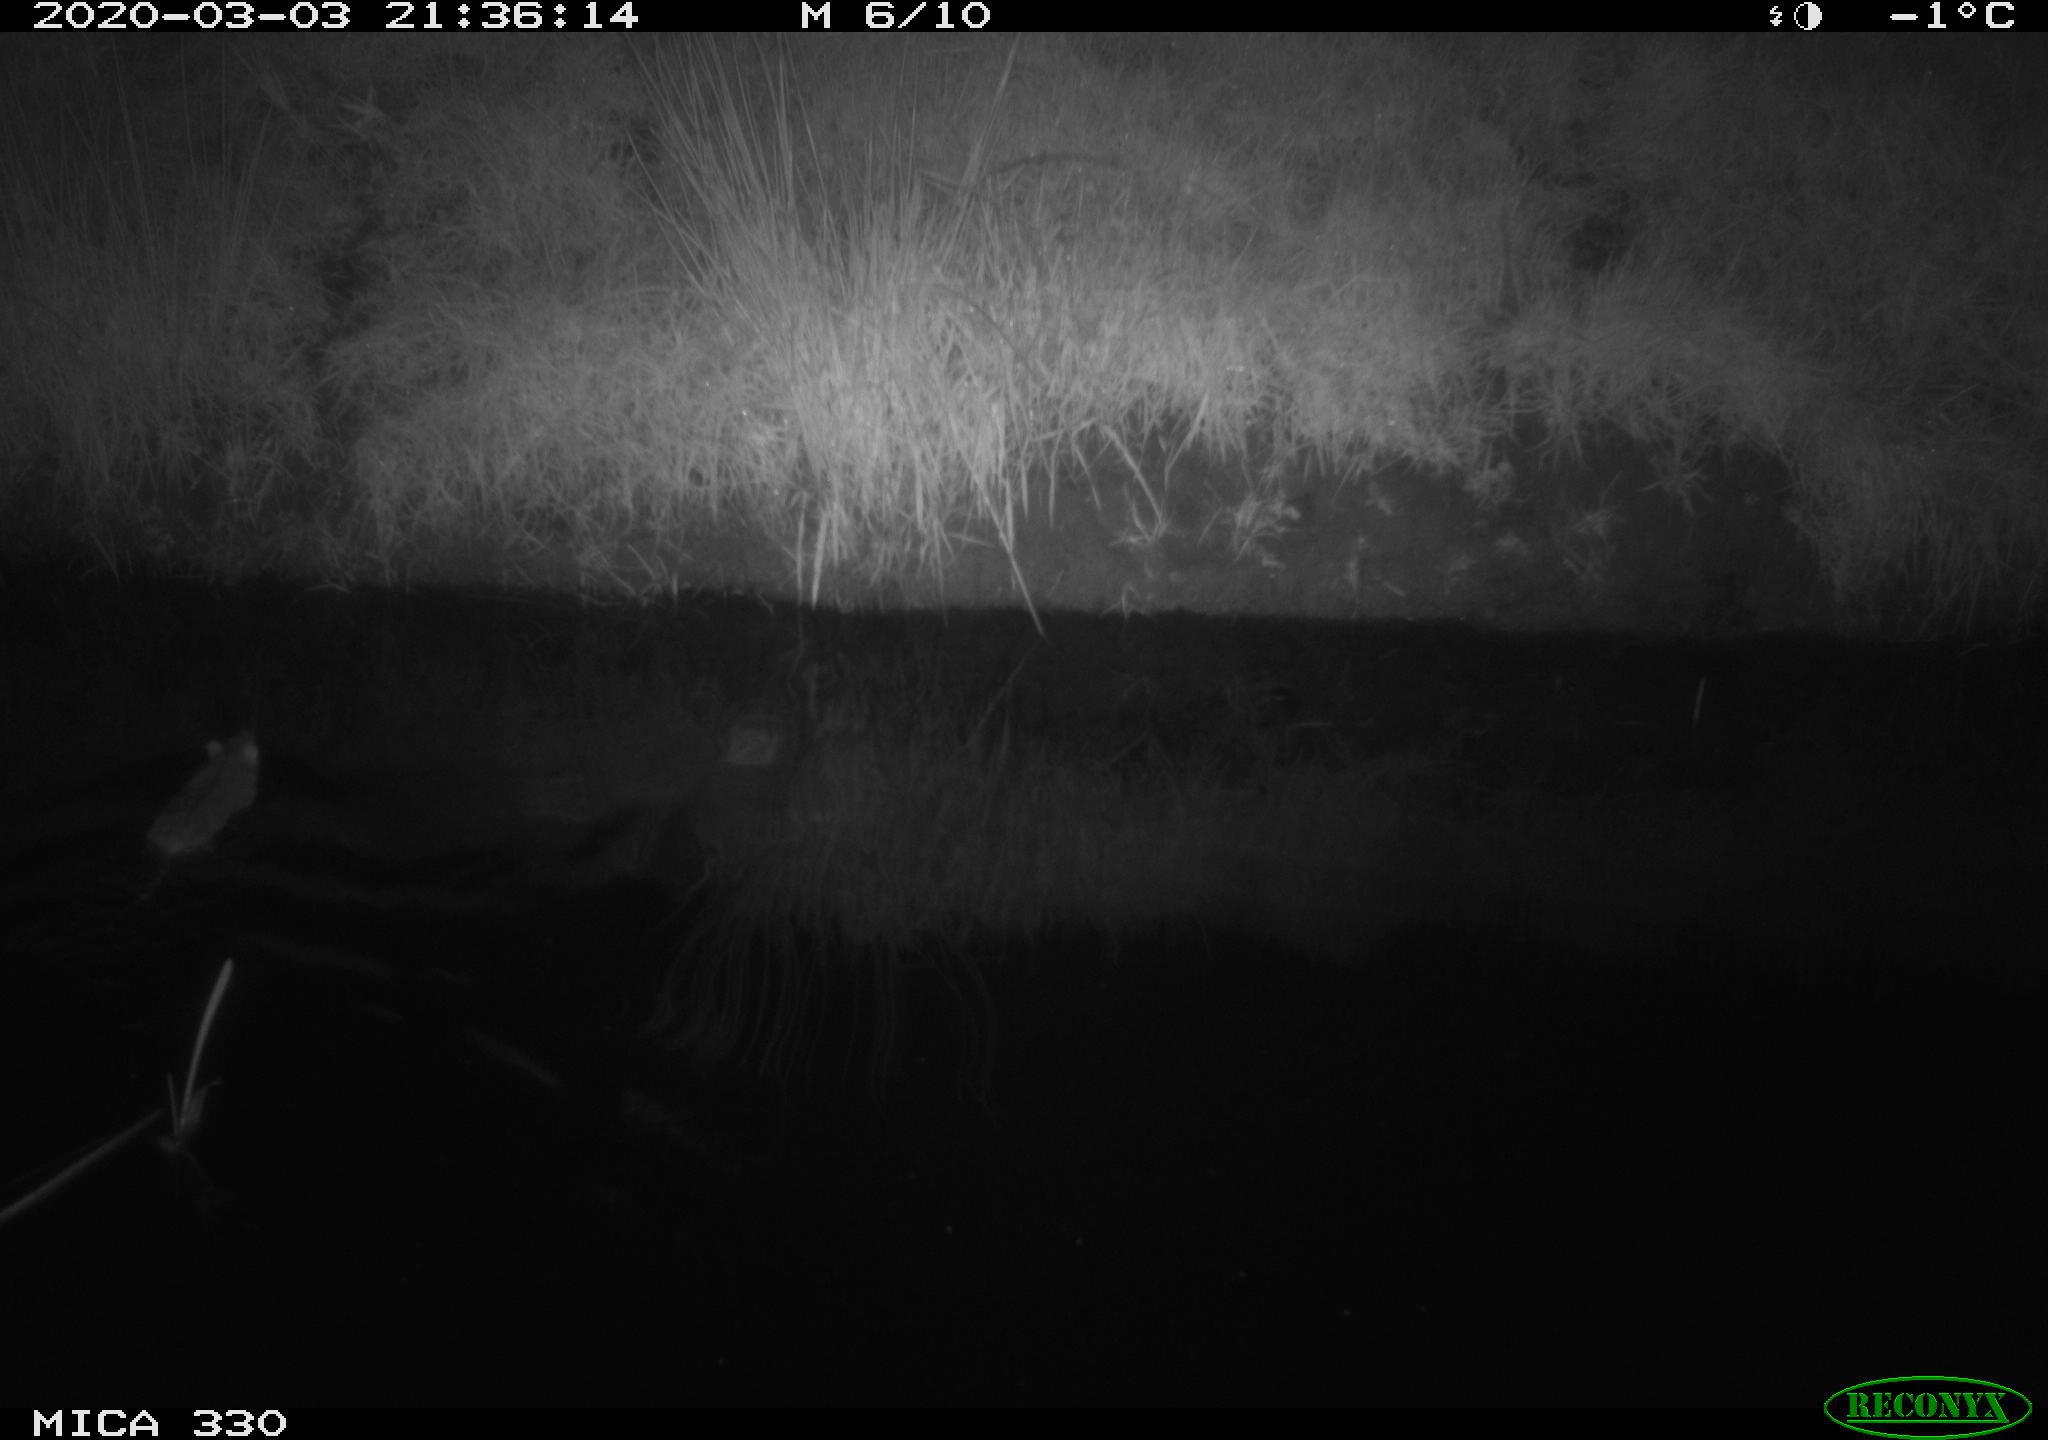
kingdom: Animalia
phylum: Chordata
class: Mammalia
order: Rodentia
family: Muridae
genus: Rattus
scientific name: Rattus norvegicus
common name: Brown rat
